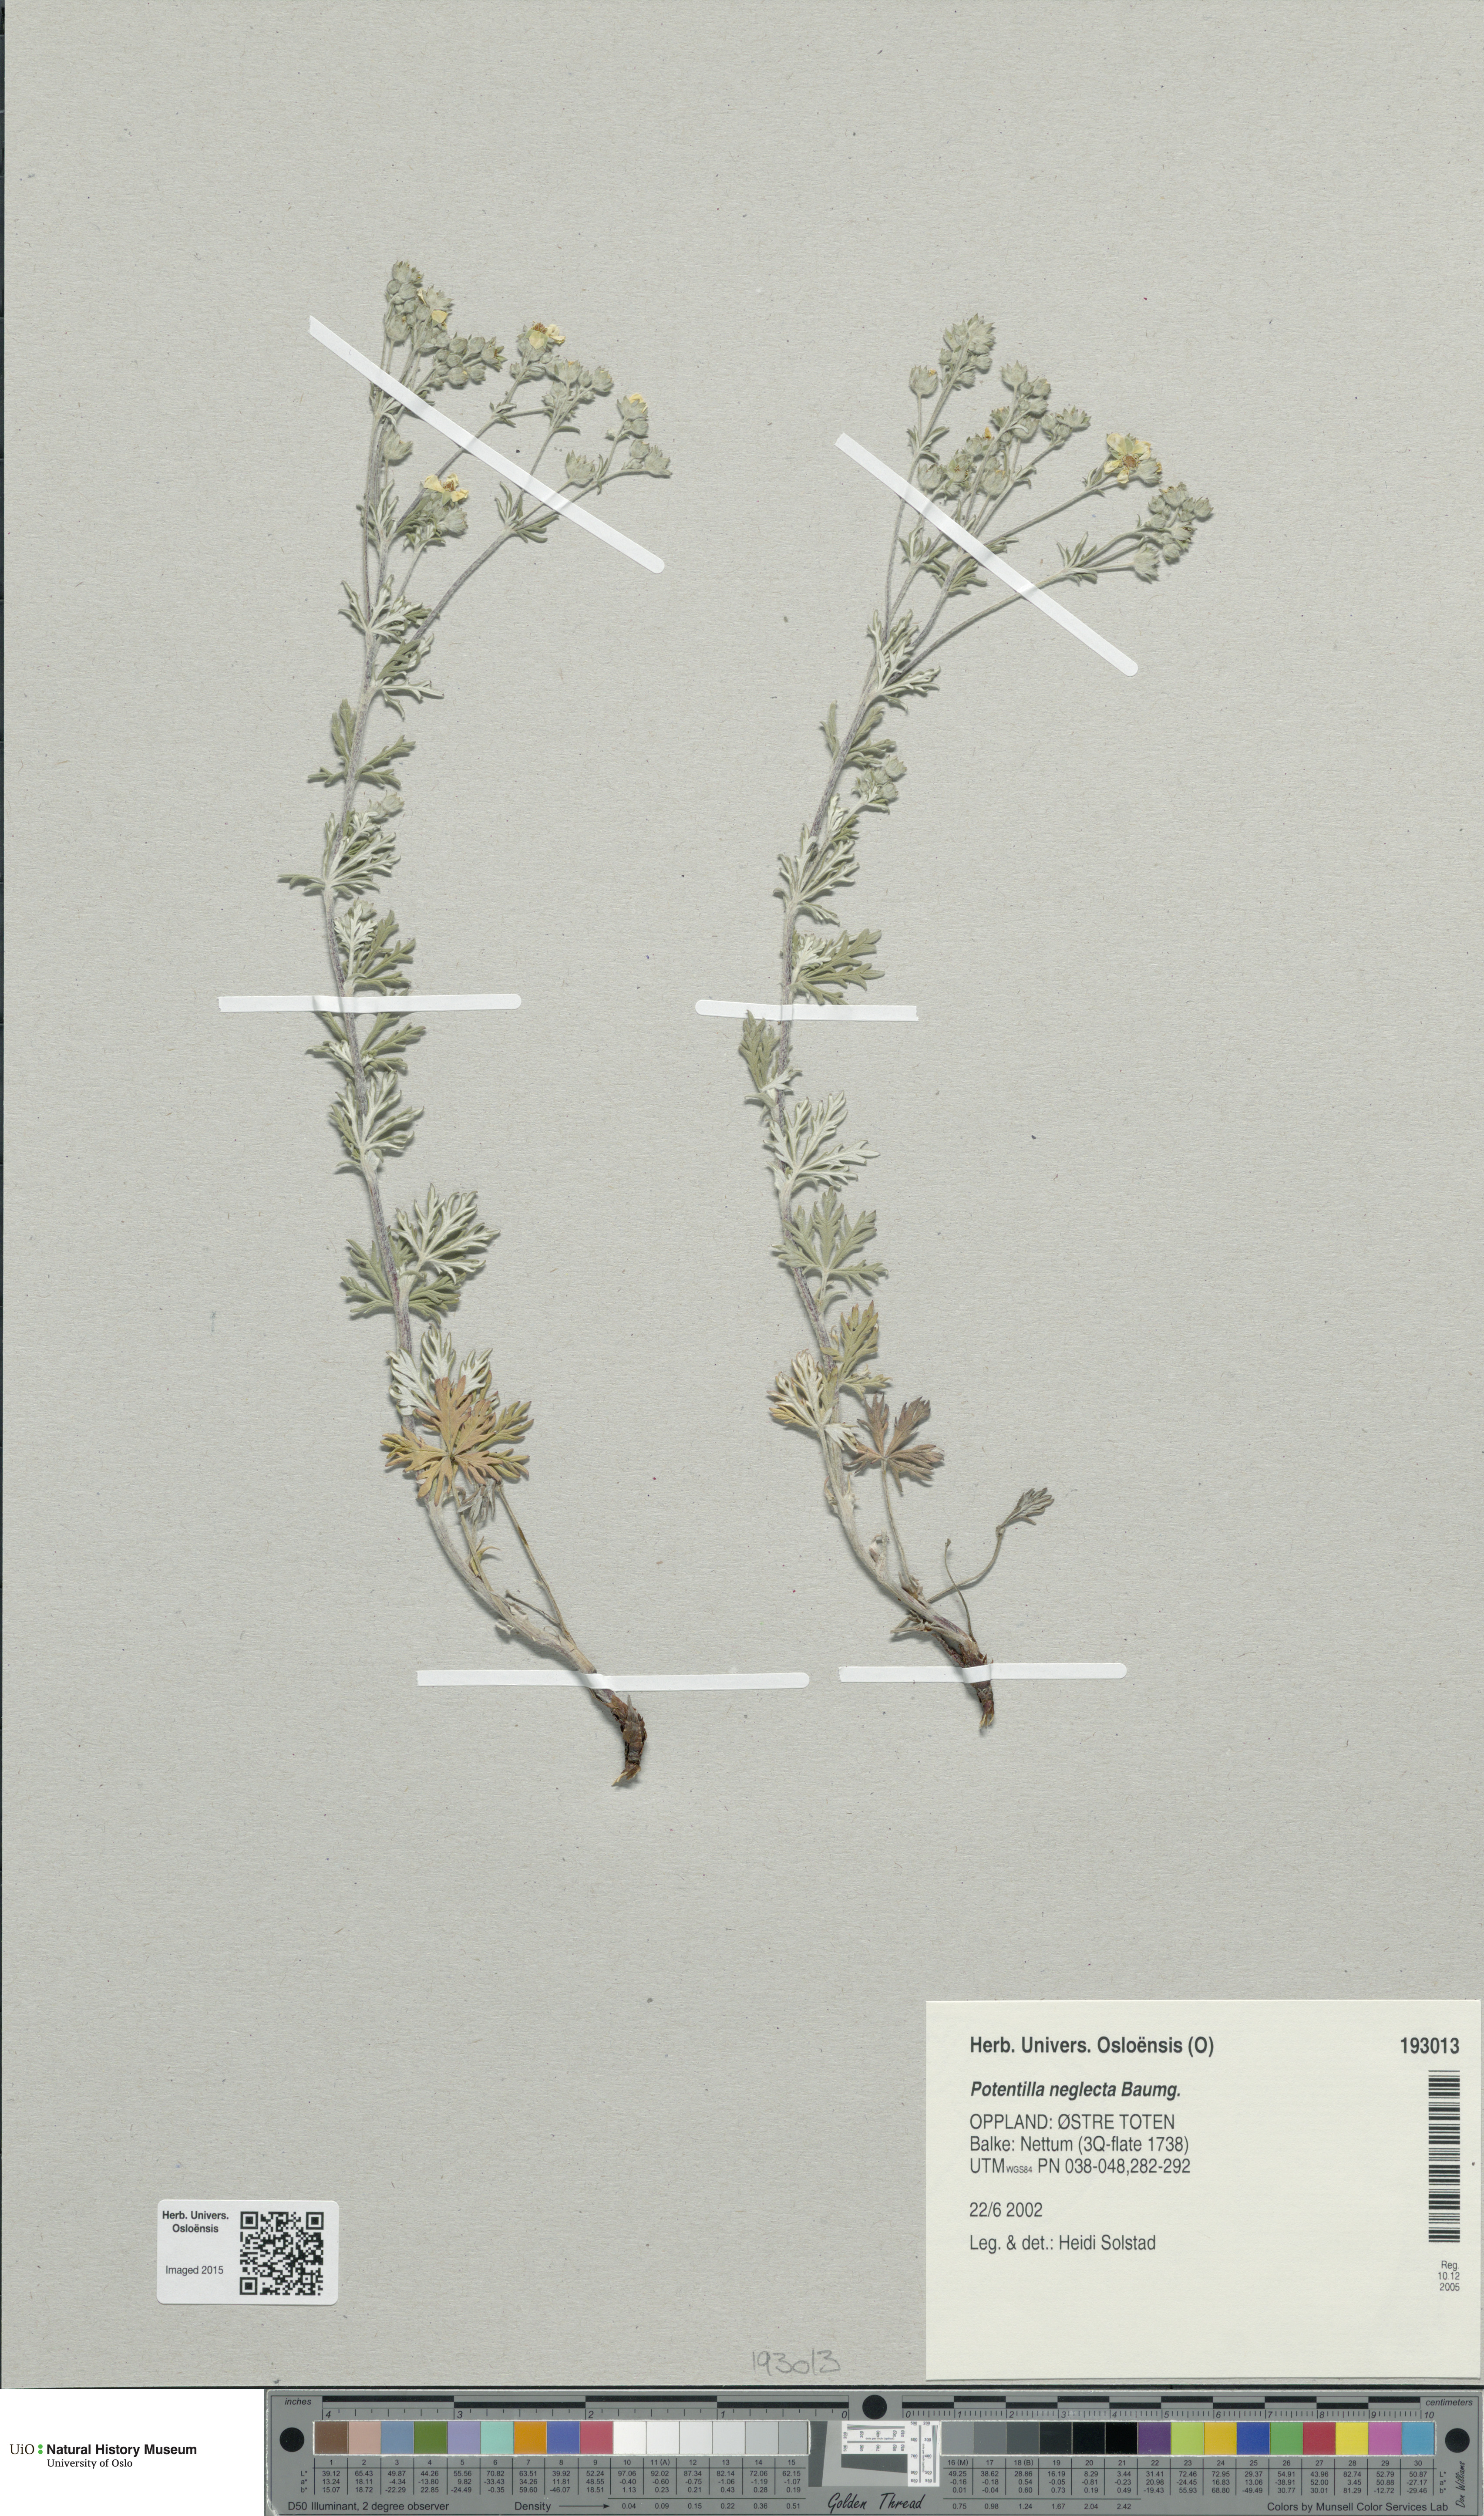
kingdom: Plantae
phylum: Tracheophyta
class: Magnoliopsida
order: Rosales
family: Rosaceae
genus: Potentilla
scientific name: Potentilla neglecta
